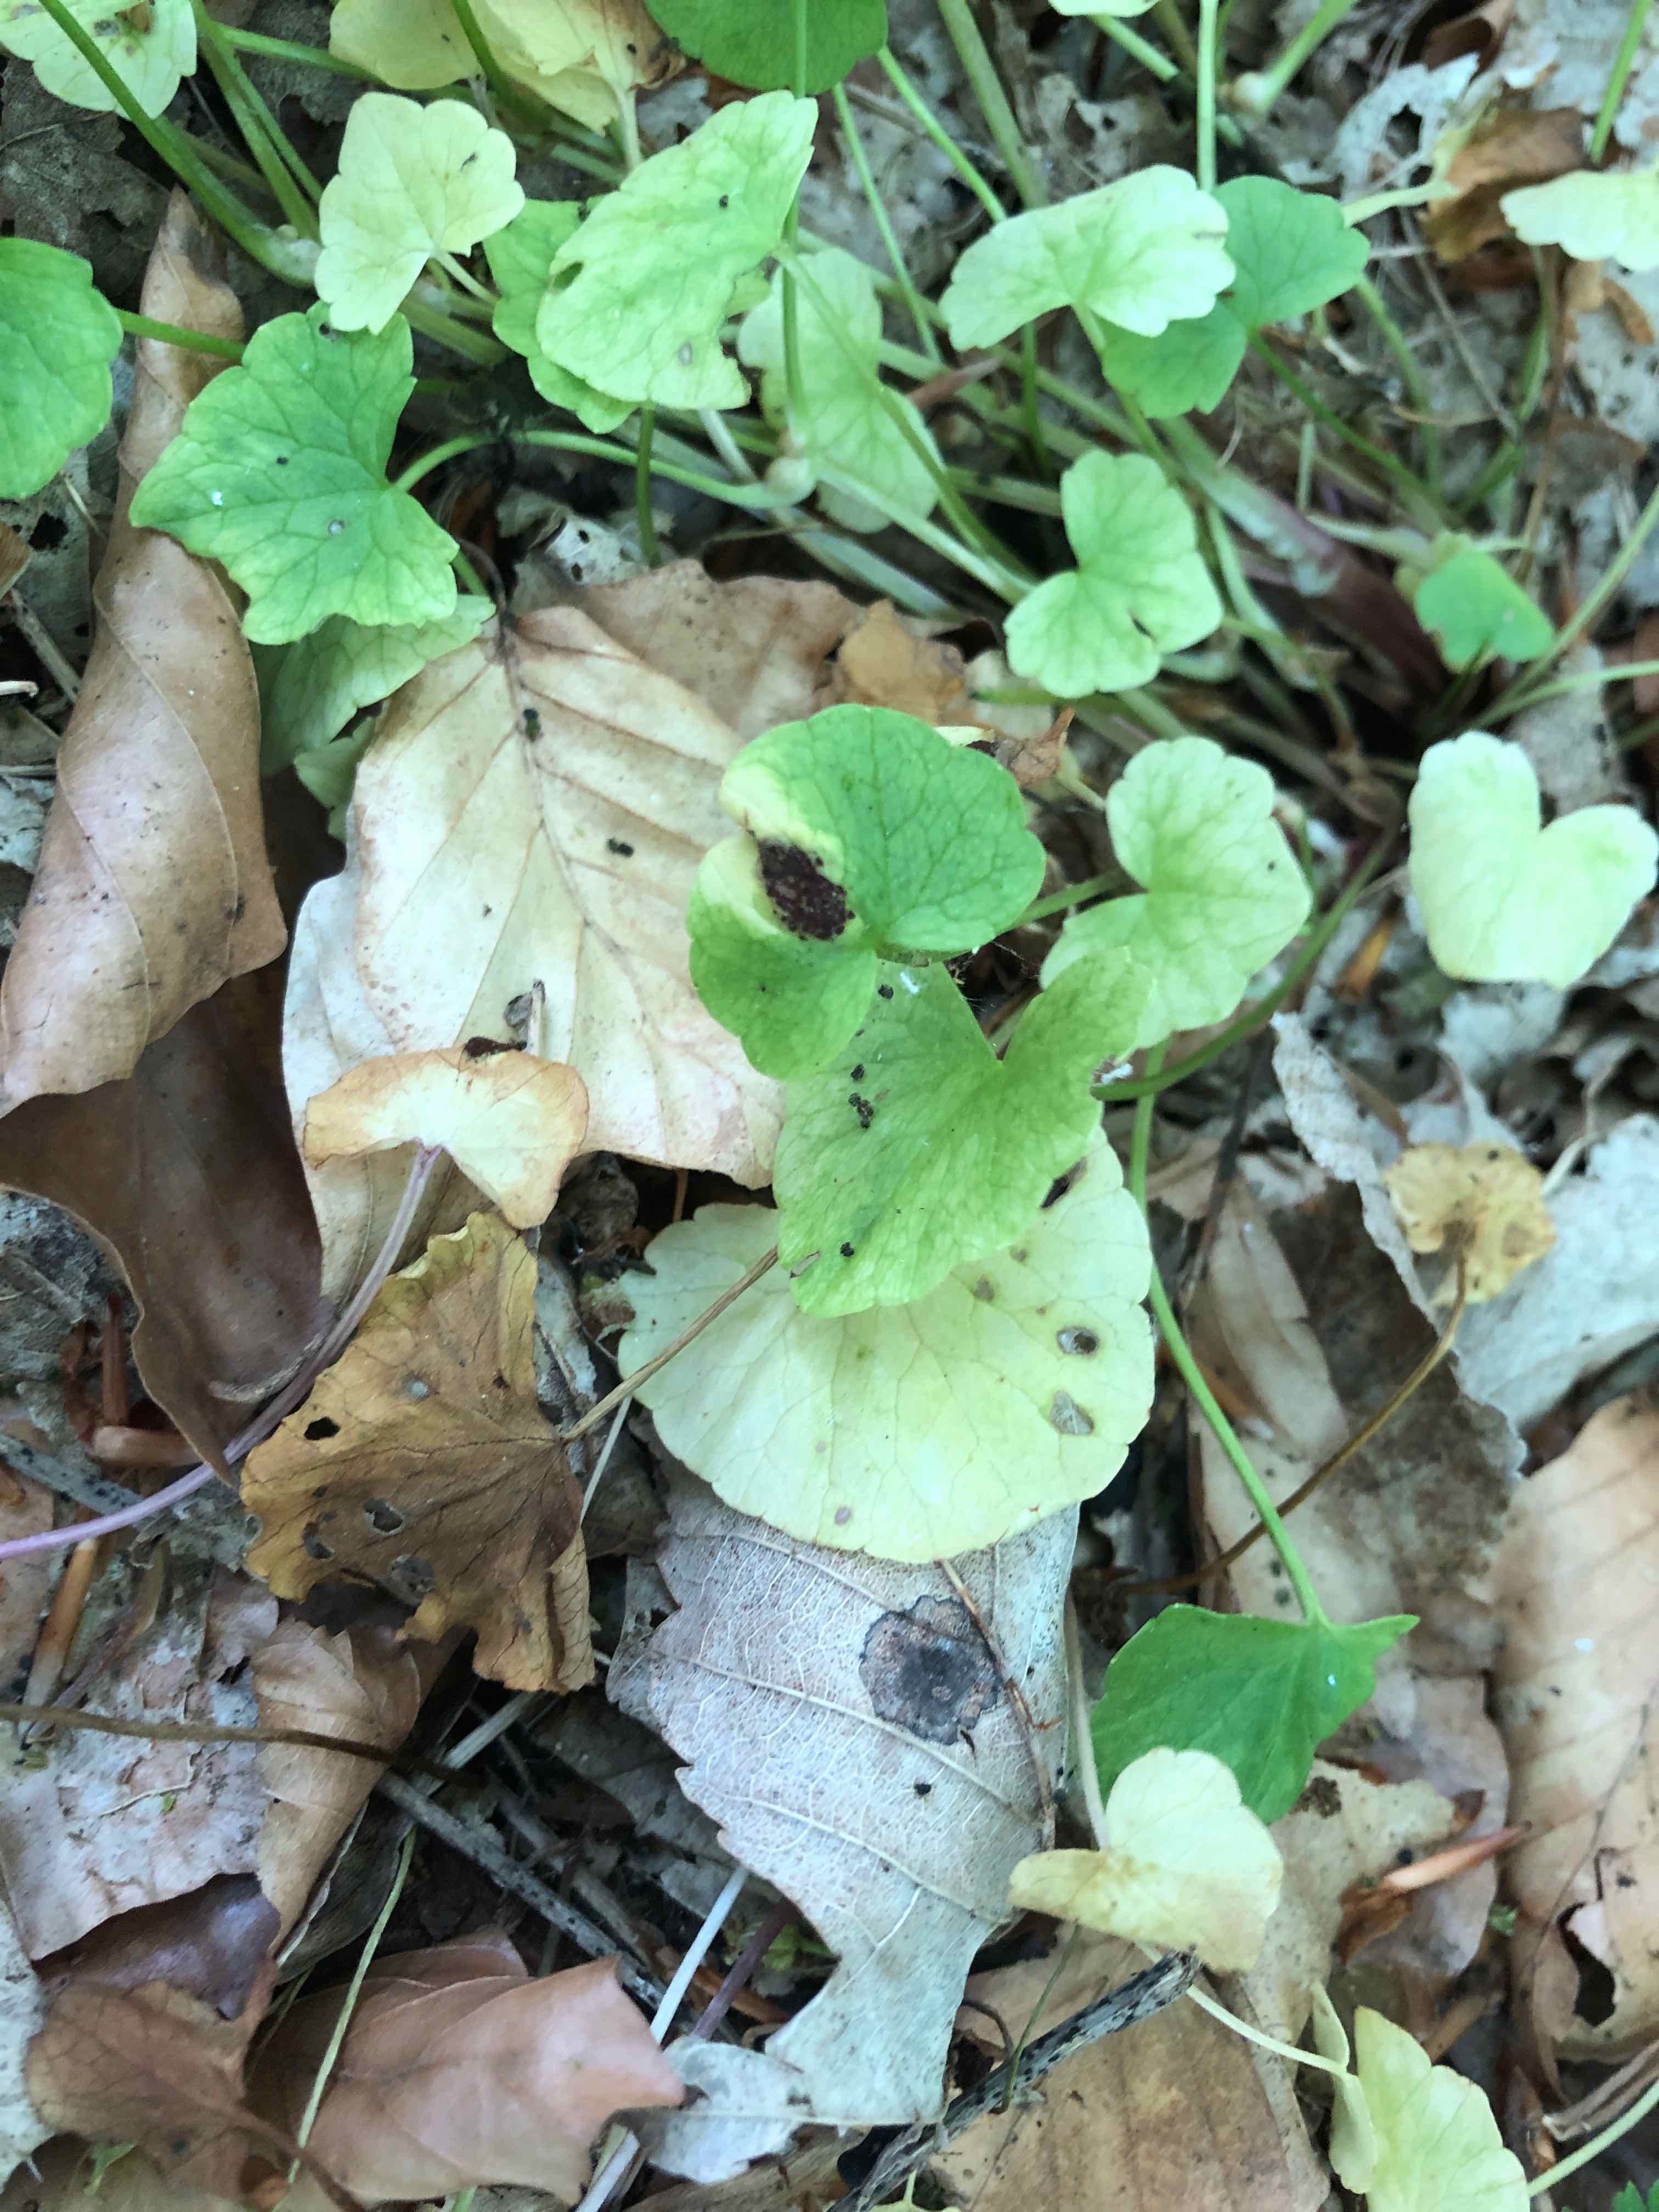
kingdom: Fungi
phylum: Basidiomycota
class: Pucciniomycetes
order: Pucciniales
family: Pucciniaceae
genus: Uromyces
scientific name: Uromyces ficariae
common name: vorterod-encellerust
